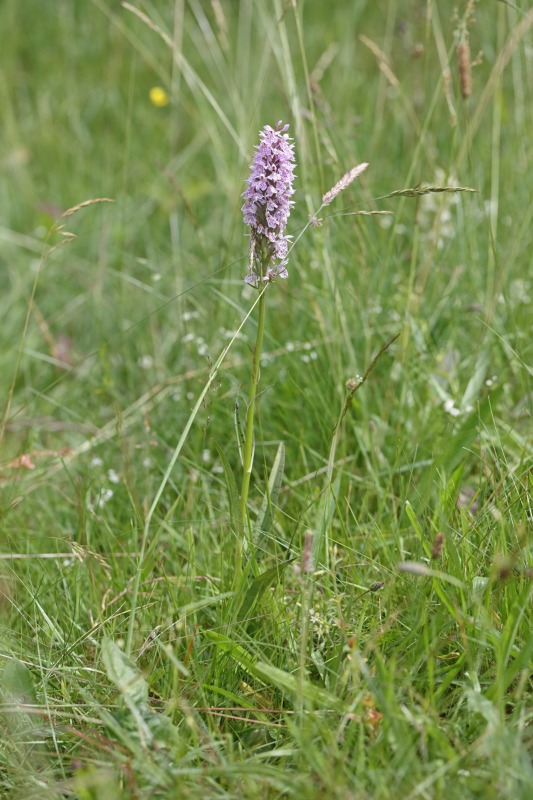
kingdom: Plantae
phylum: Tracheophyta
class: Liliopsida
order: Asparagales
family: Orchidaceae
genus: Dactylorhiza
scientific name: Dactylorhiza maculata
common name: Plettet gøgeurt
